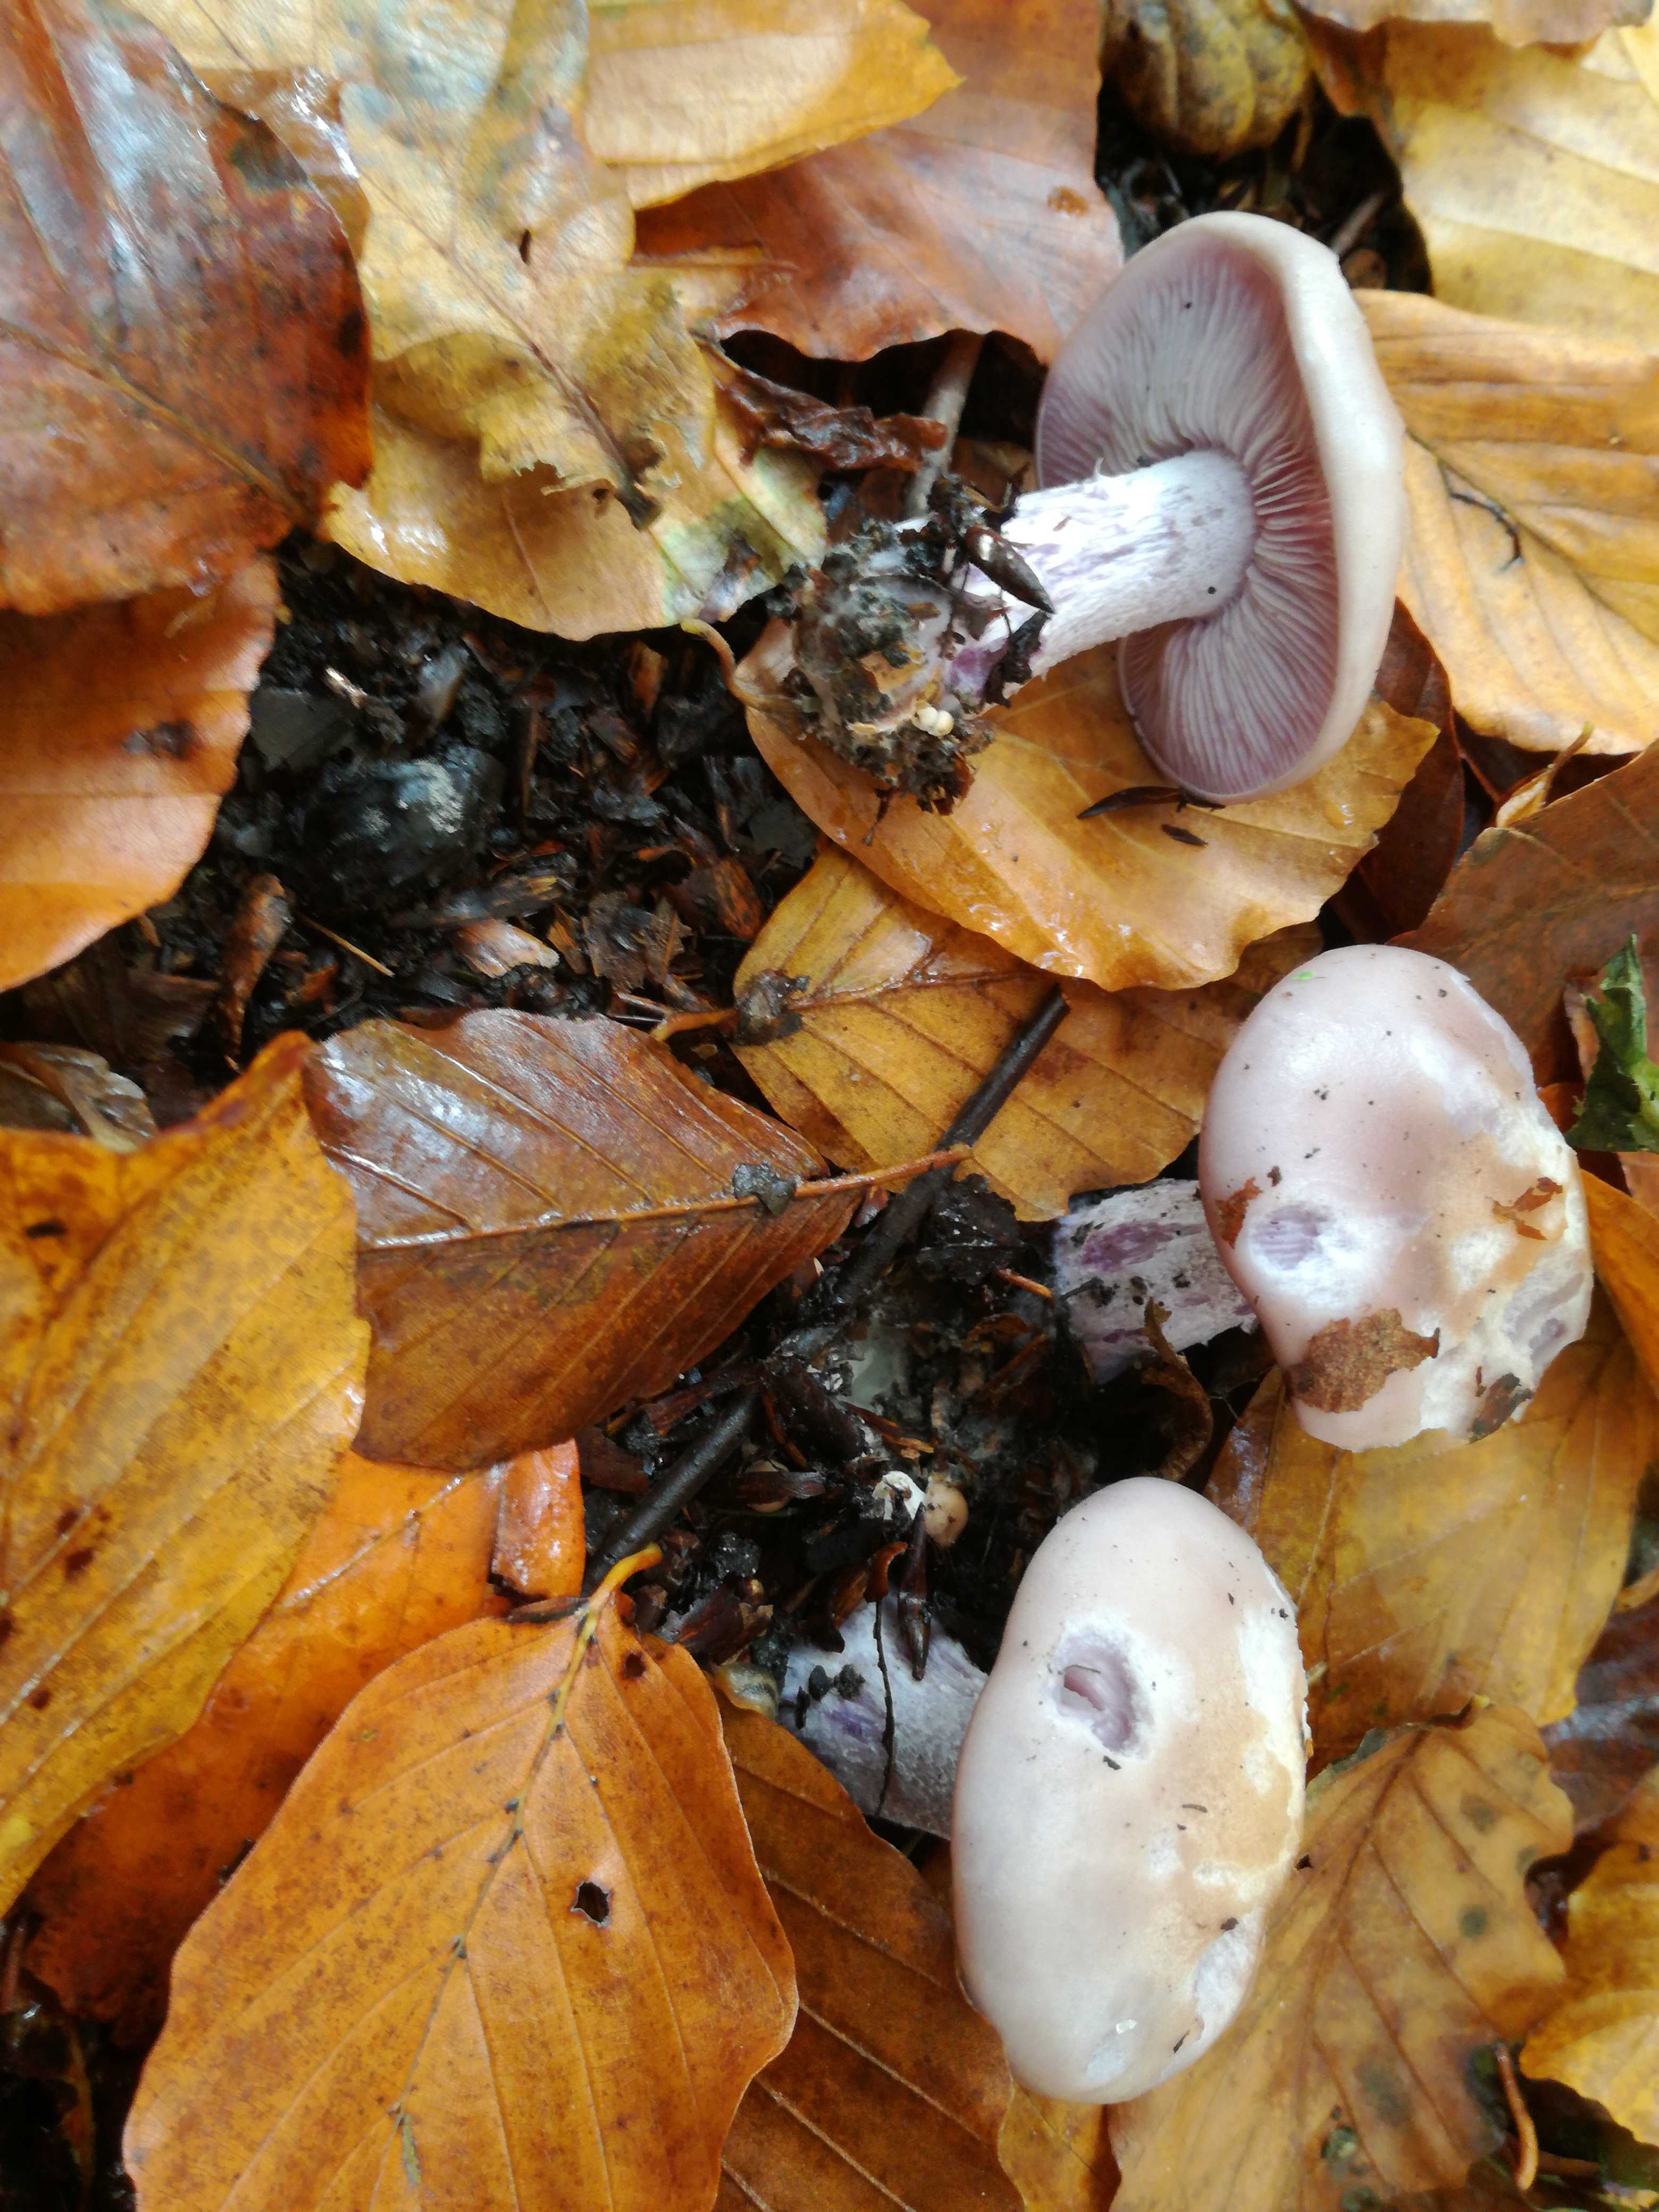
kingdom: Fungi
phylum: Basidiomycota
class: Agaricomycetes
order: Agaricales
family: Tricholomataceae
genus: Lepista
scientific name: Lepista nuda
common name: violet hekseringshat
